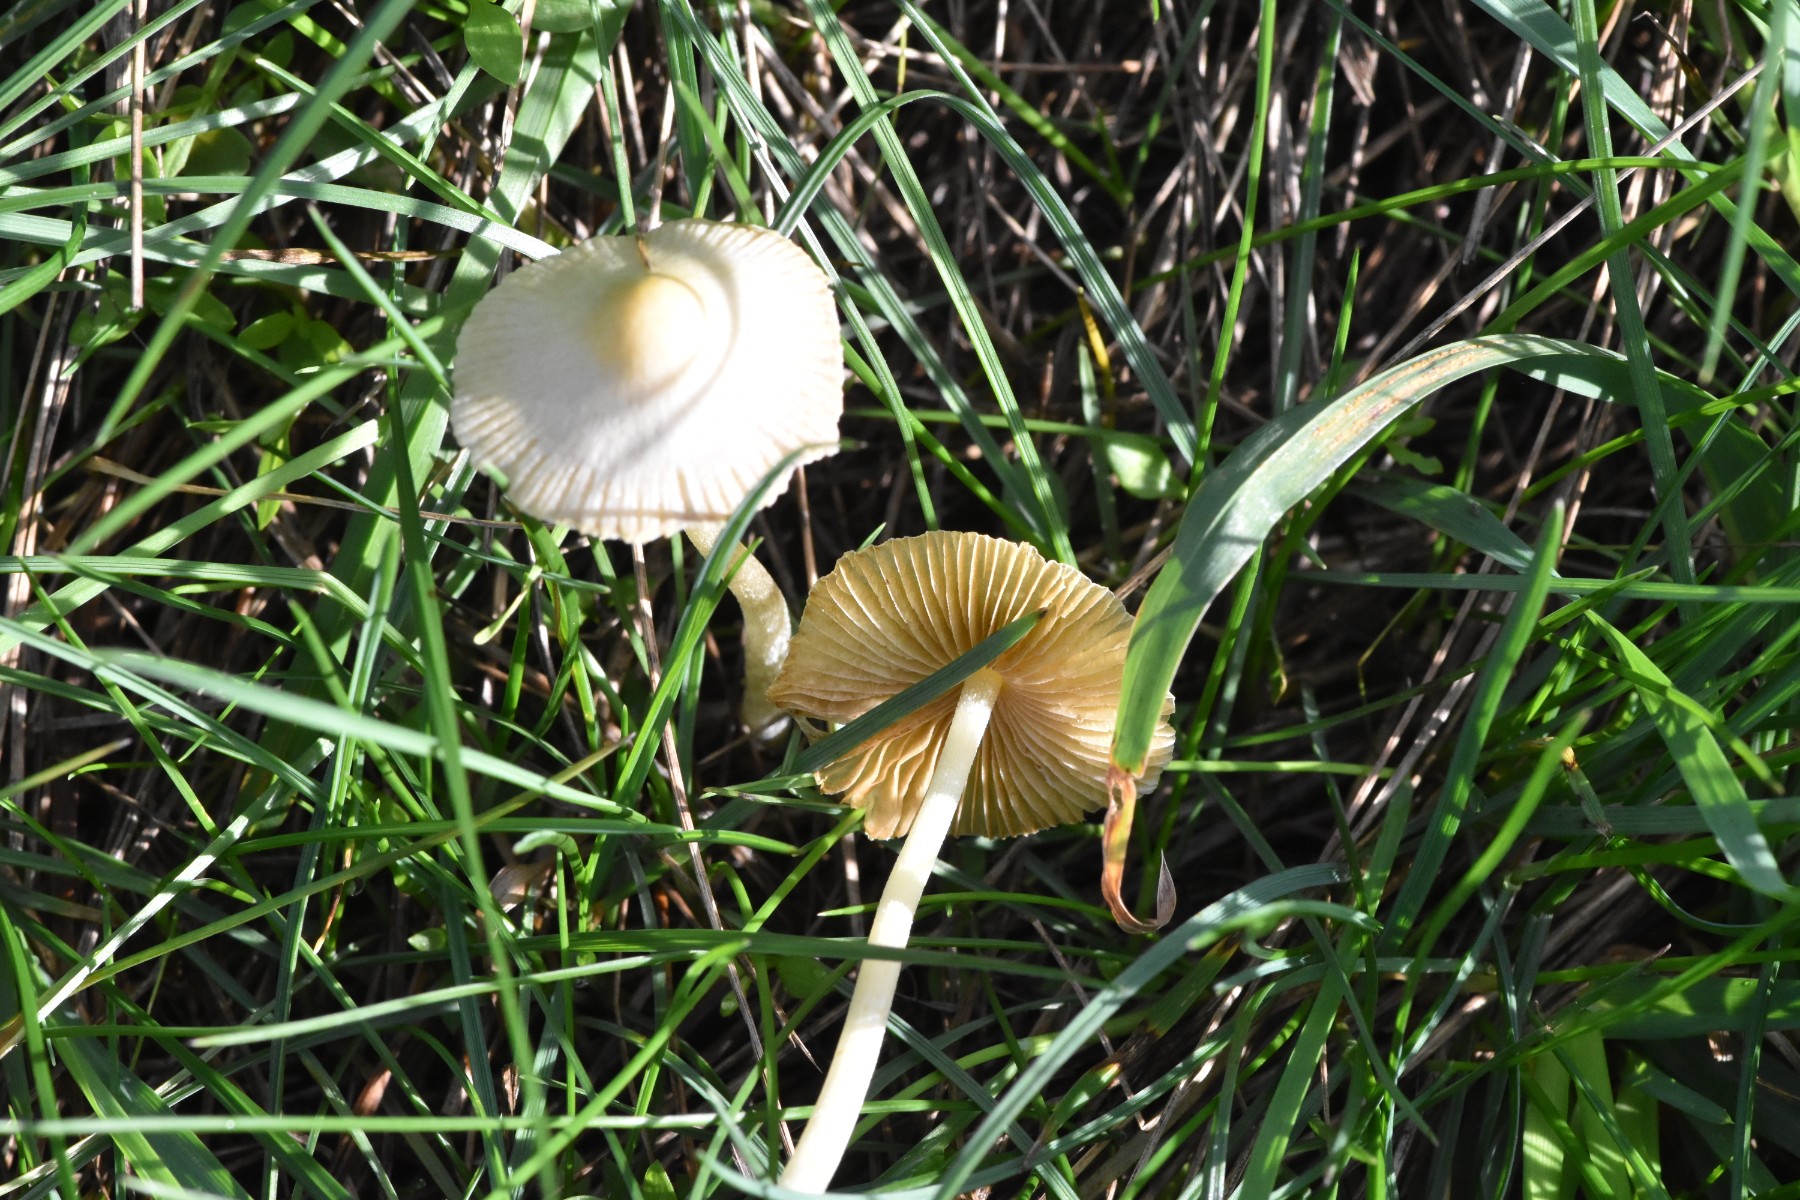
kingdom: Fungi
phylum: Basidiomycota
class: Agaricomycetes
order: Agaricales
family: Bolbitiaceae
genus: Bolbitius
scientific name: Bolbitius titubans
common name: almindelig gulhat
